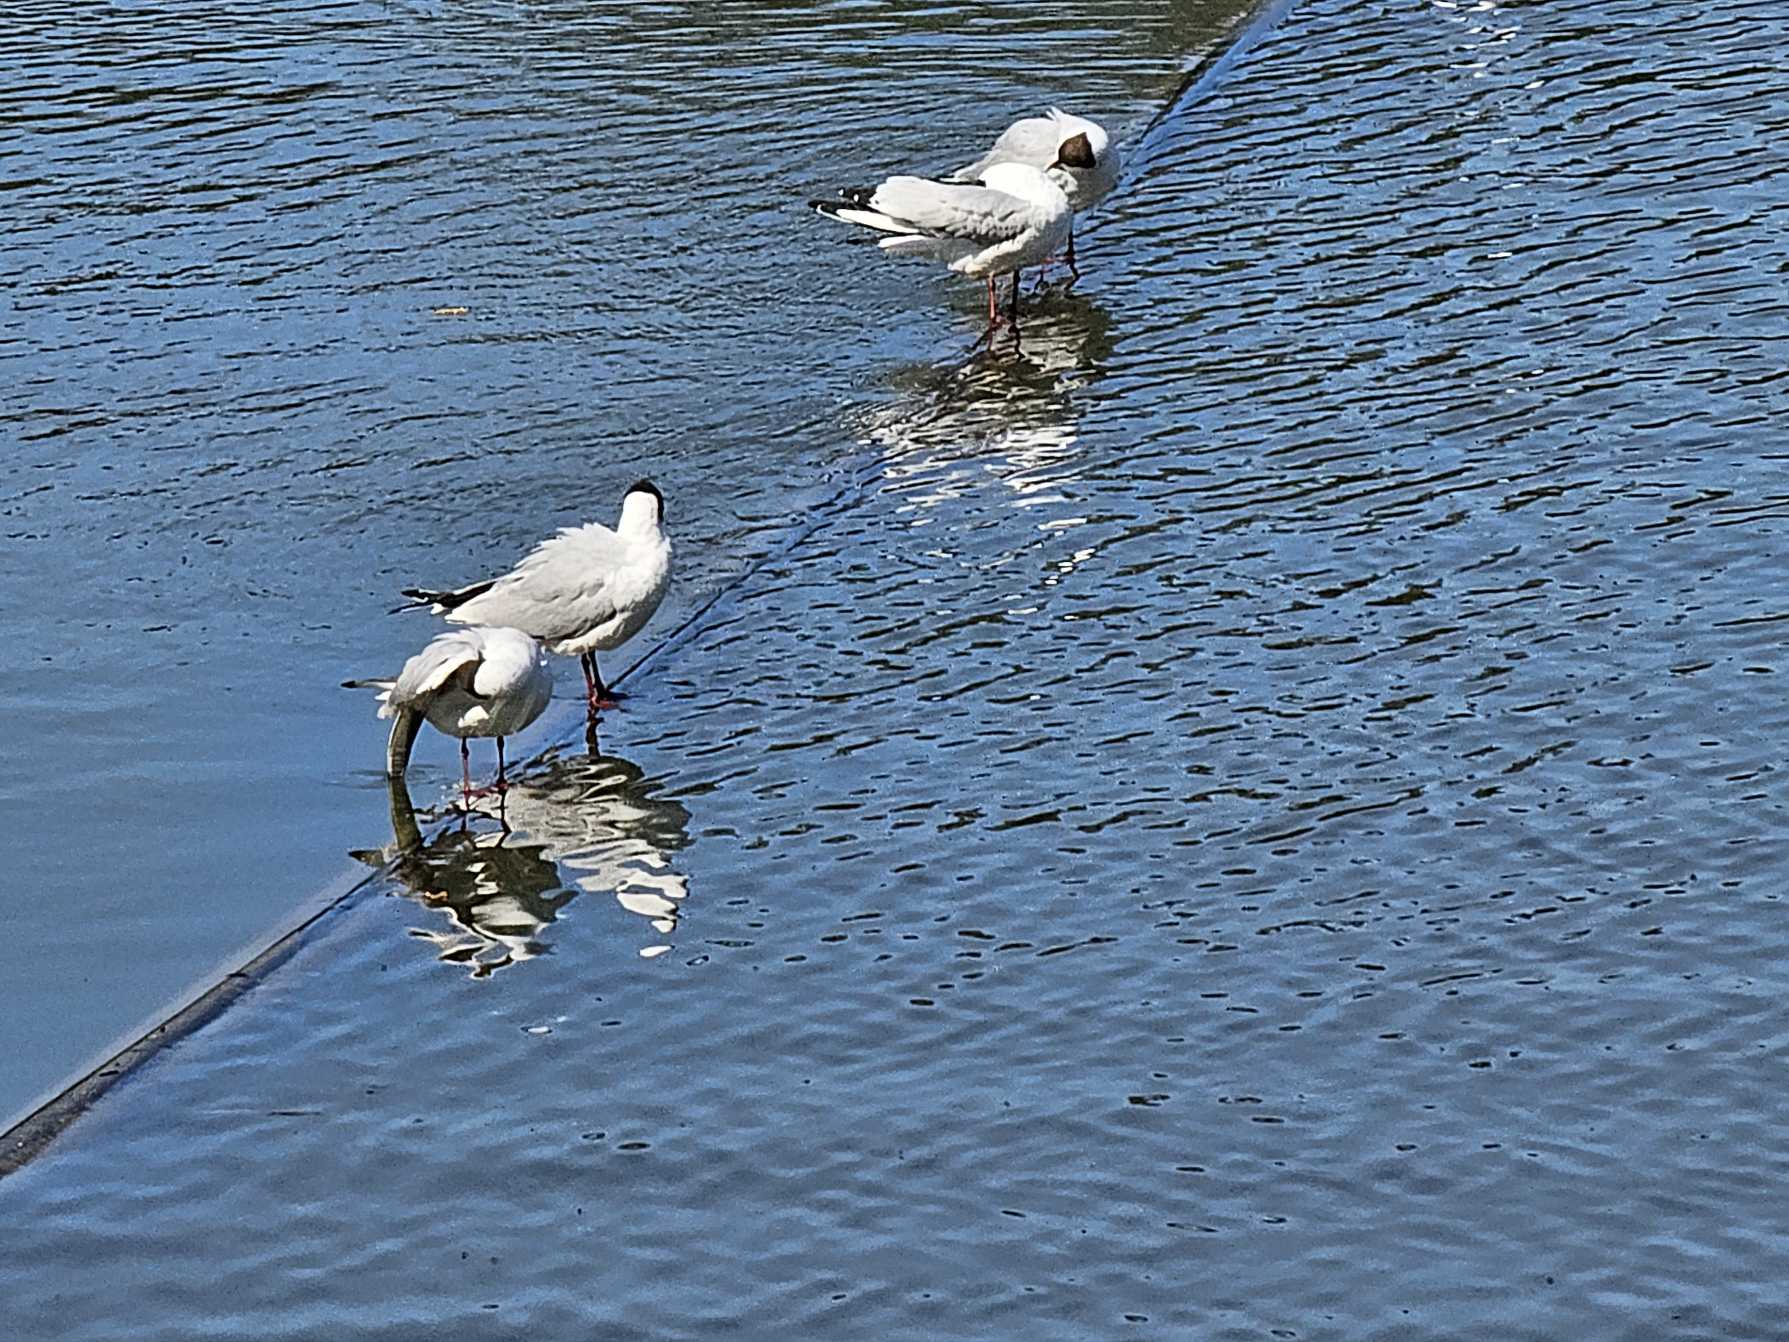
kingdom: Animalia
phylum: Chordata
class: Aves
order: Charadriiformes
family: Laridae
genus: Chroicocephalus
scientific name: Chroicocephalus ridibundus
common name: Hættemåge
